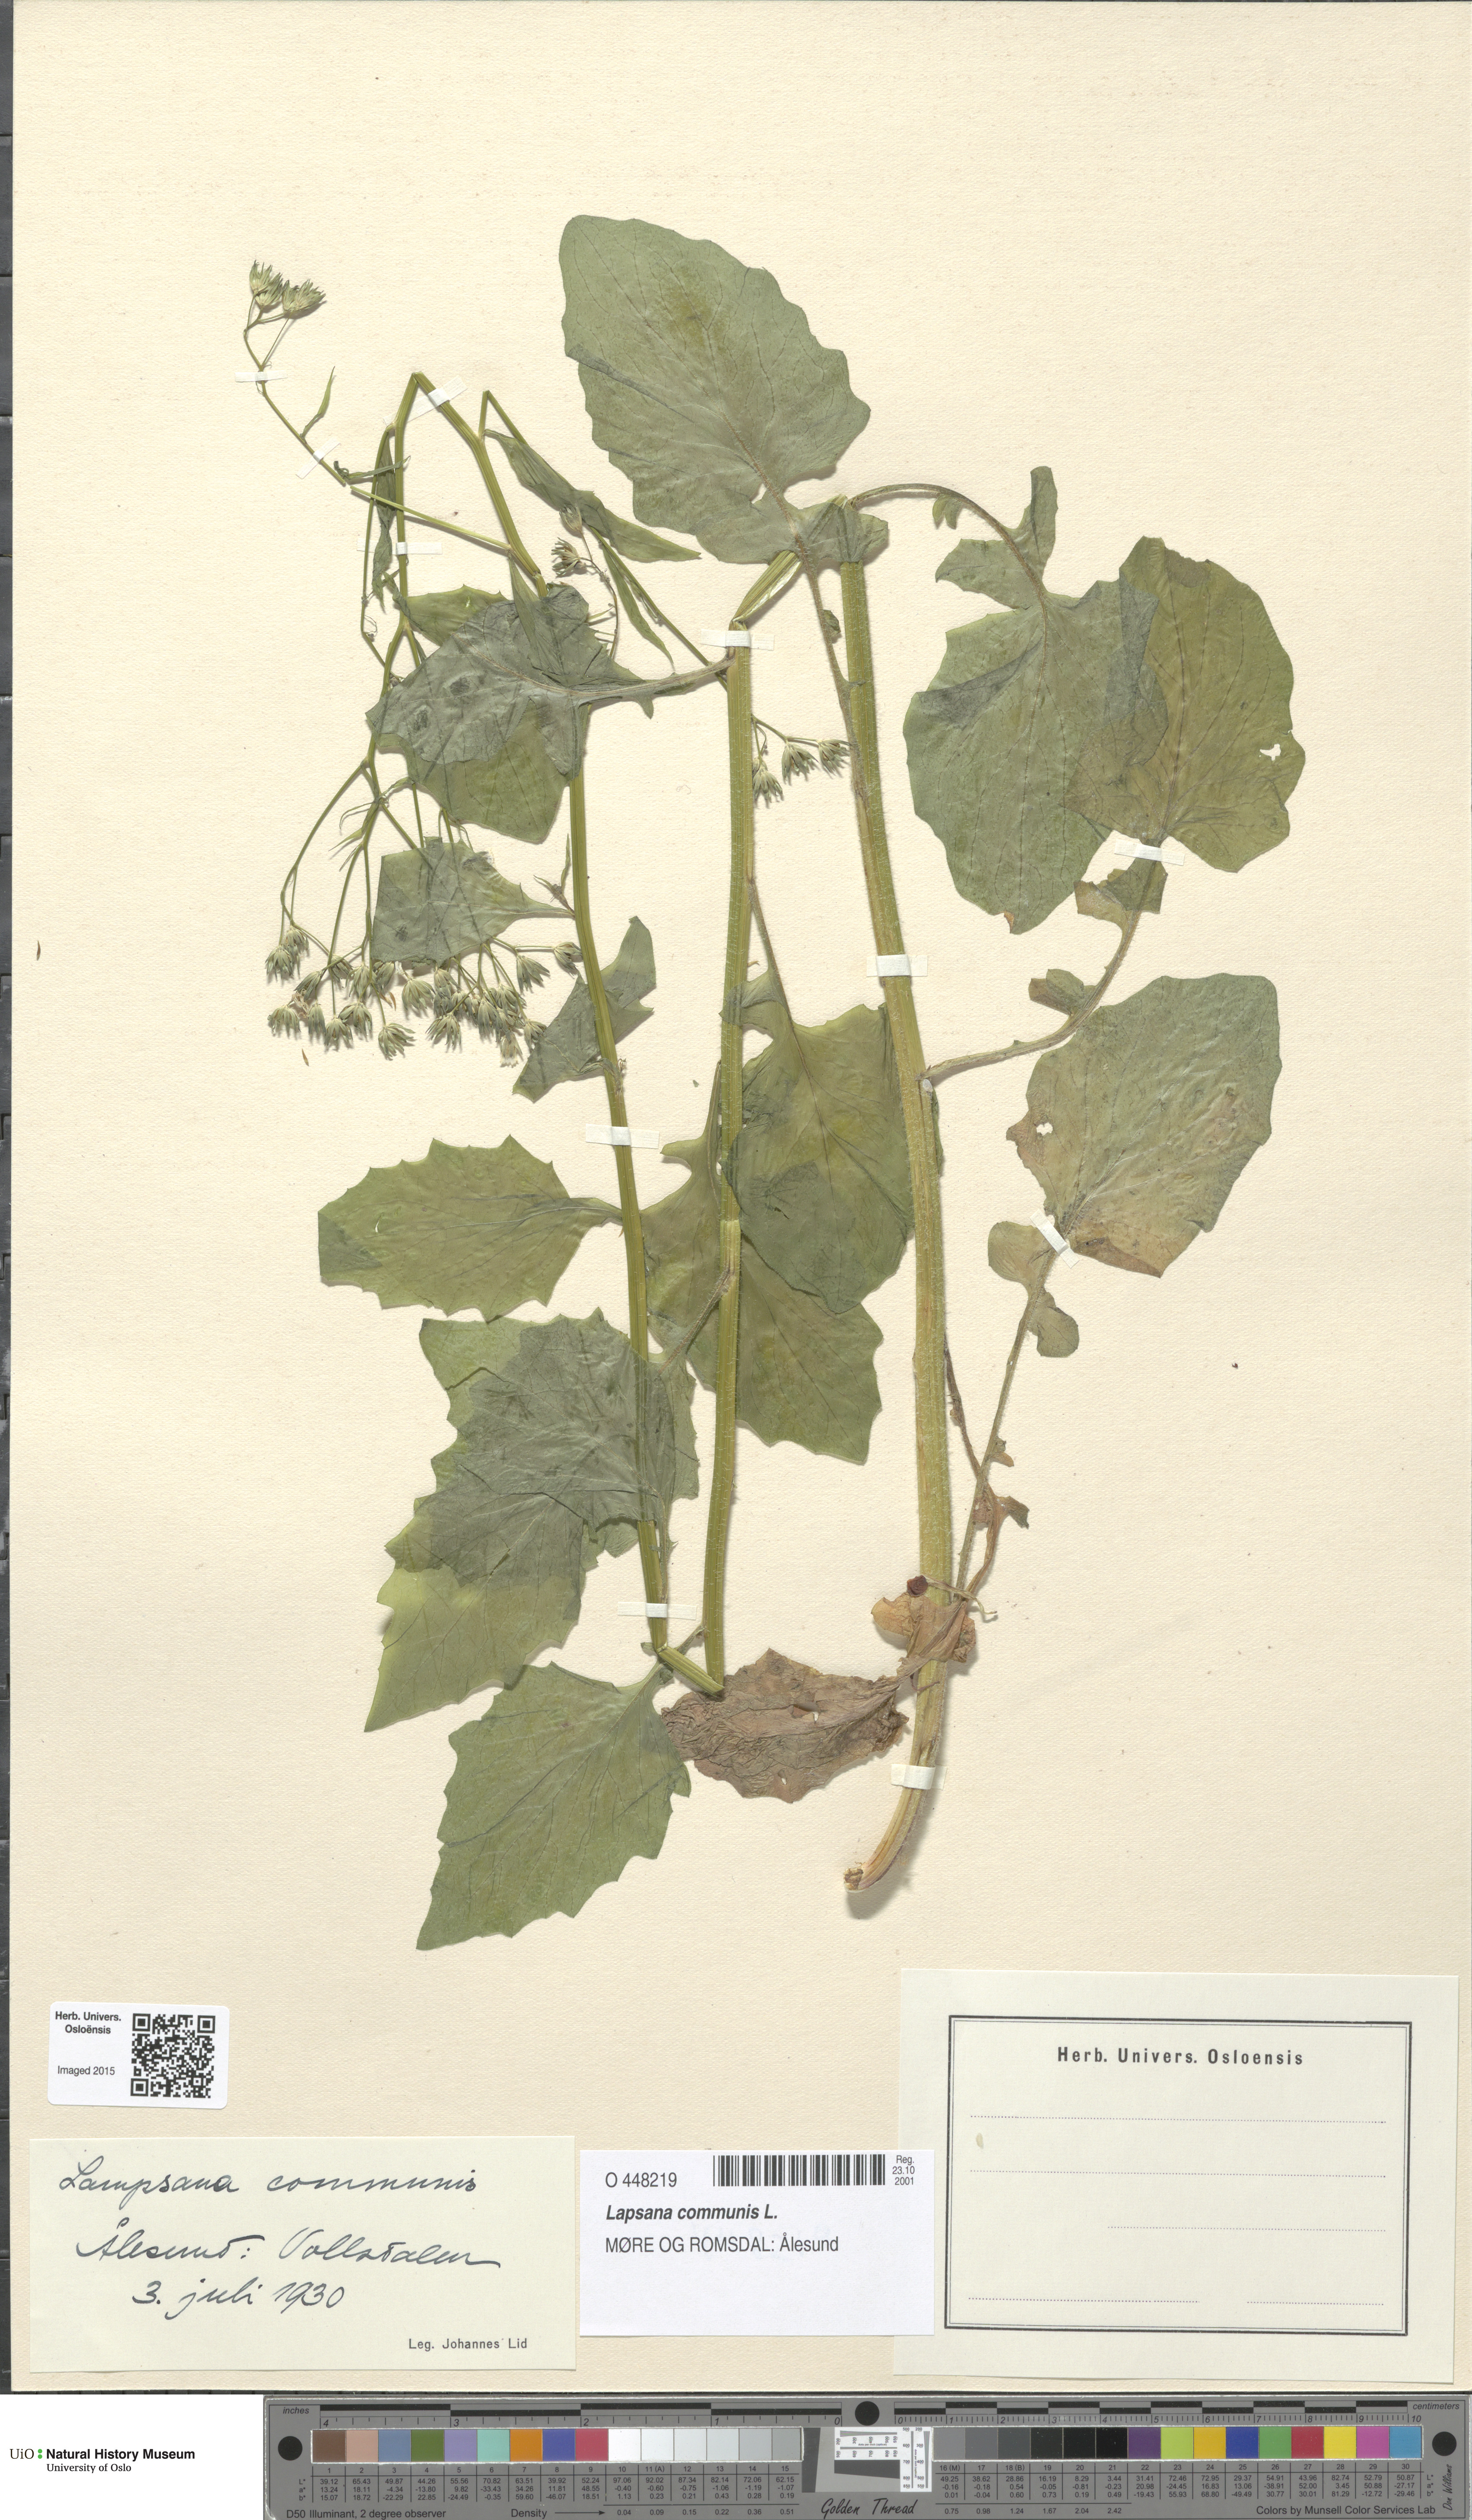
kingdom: Plantae
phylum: Tracheophyta
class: Magnoliopsida
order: Asterales
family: Asteraceae
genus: Lapsana
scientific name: Lapsana communis
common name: Nipplewort
